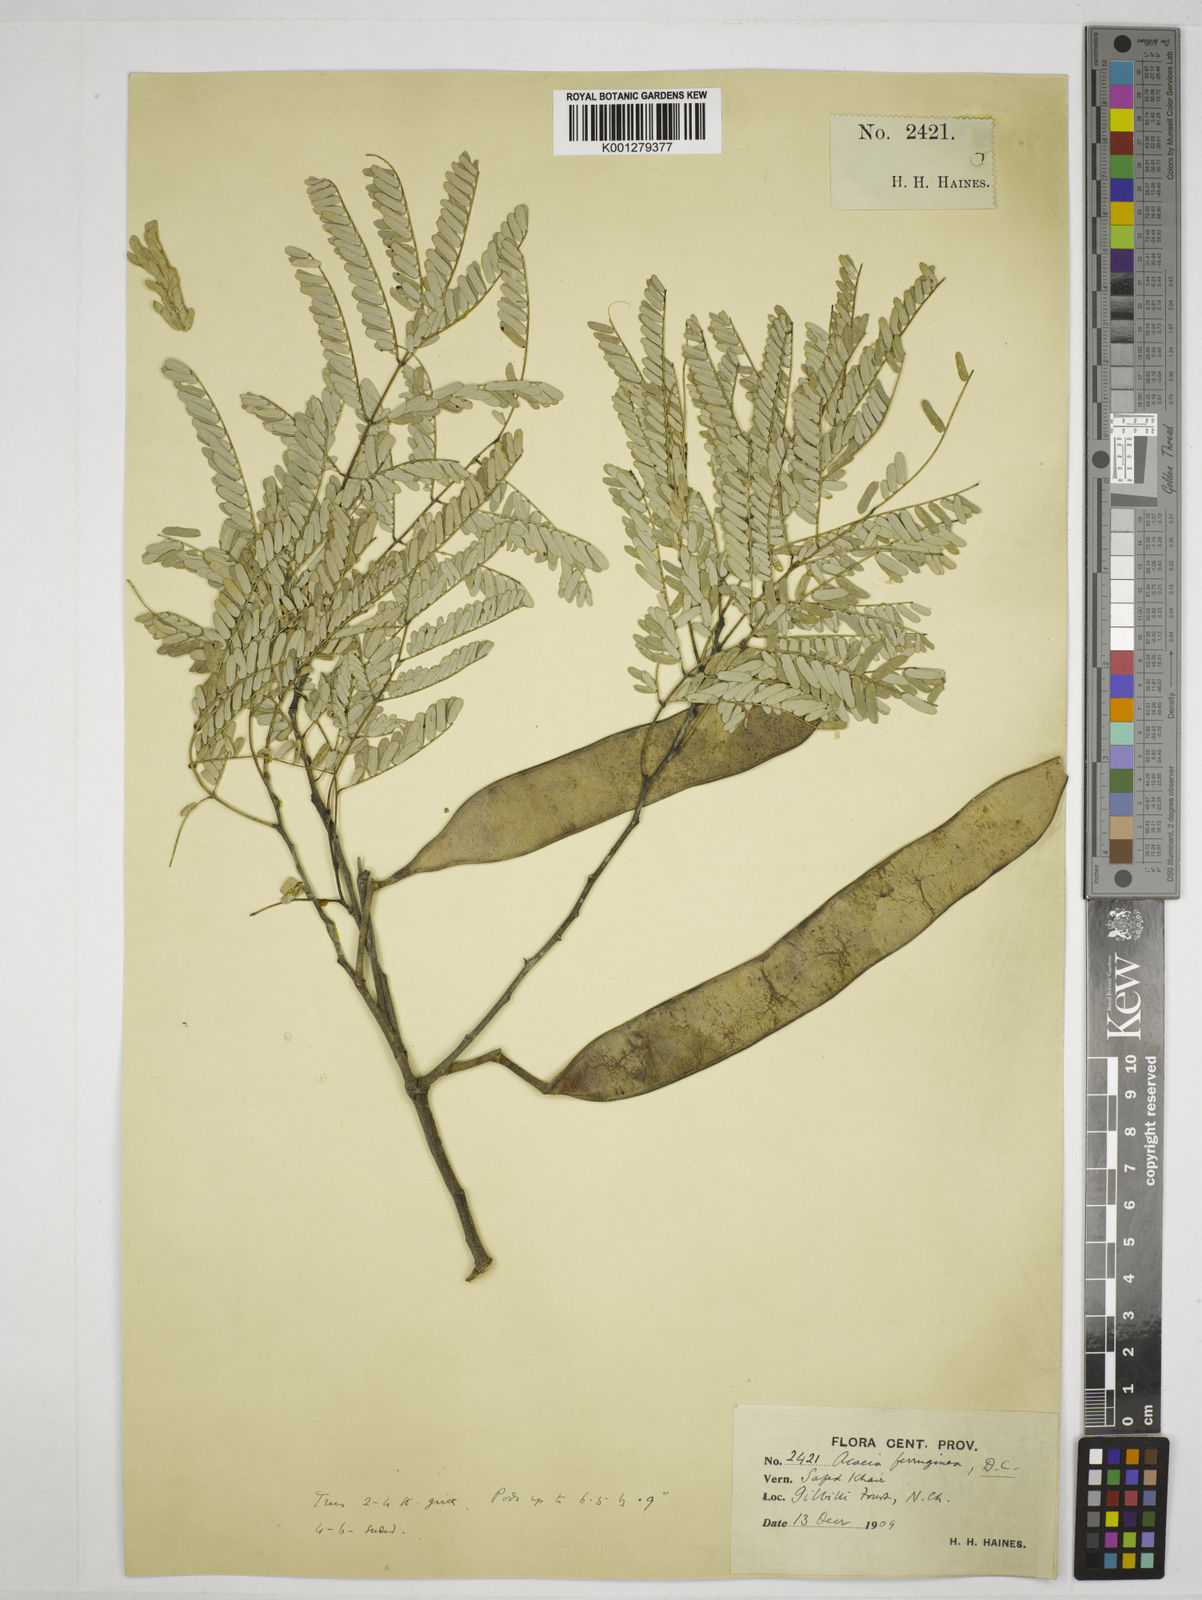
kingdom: Plantae
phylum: Tracheophyta
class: Magnoliopsida
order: Fabales
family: Fabaceae
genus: Senegalia
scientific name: Senegalia ferruginea
